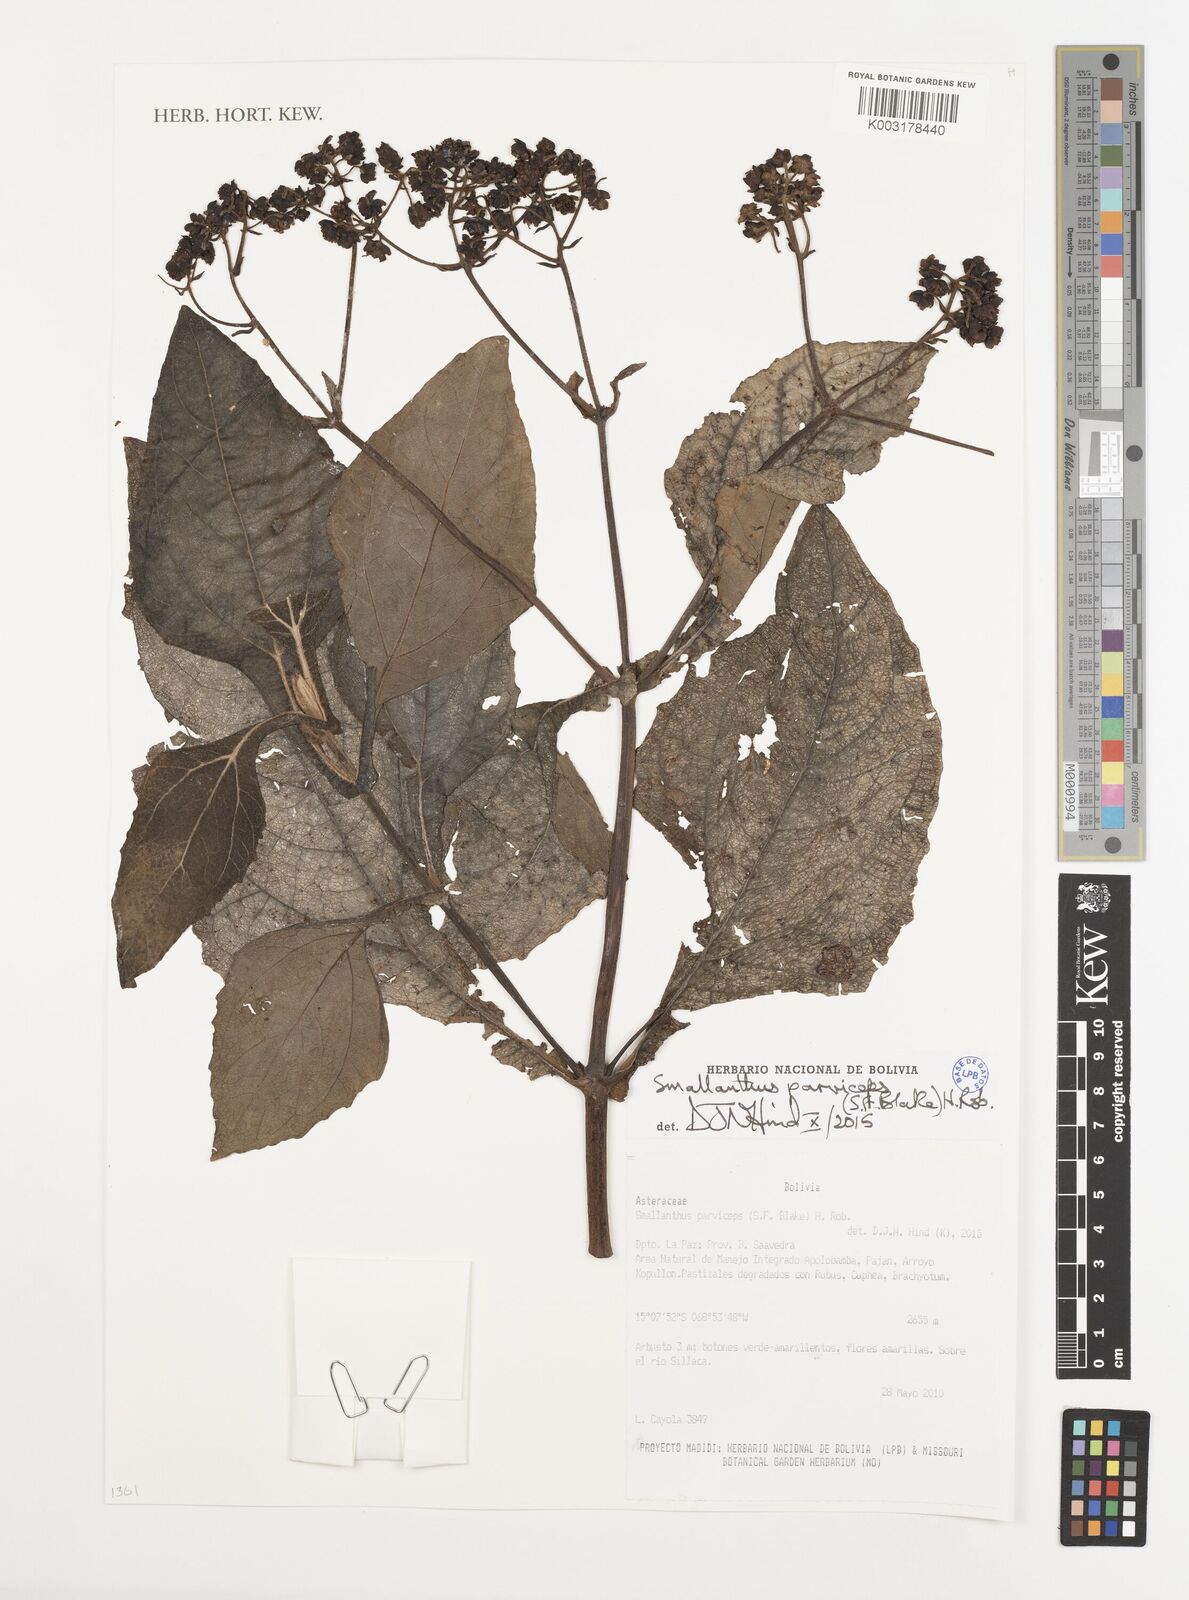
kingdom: Plantae
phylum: Tracheophyta
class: Magnoliopsida
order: Asterales
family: Asteraceae
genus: Smallanthus
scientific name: Smallanthus parviceps
